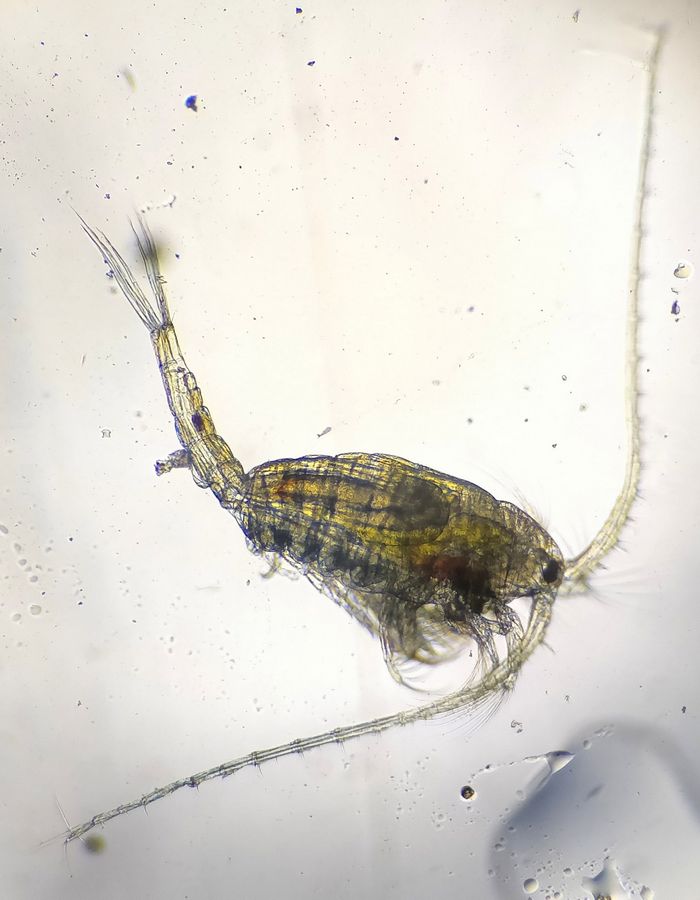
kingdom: Animalia
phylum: Arthropoda
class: Copepoda
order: Calanoida
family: Temoridae
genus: Heterocope
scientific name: Heterocope appendiculata
